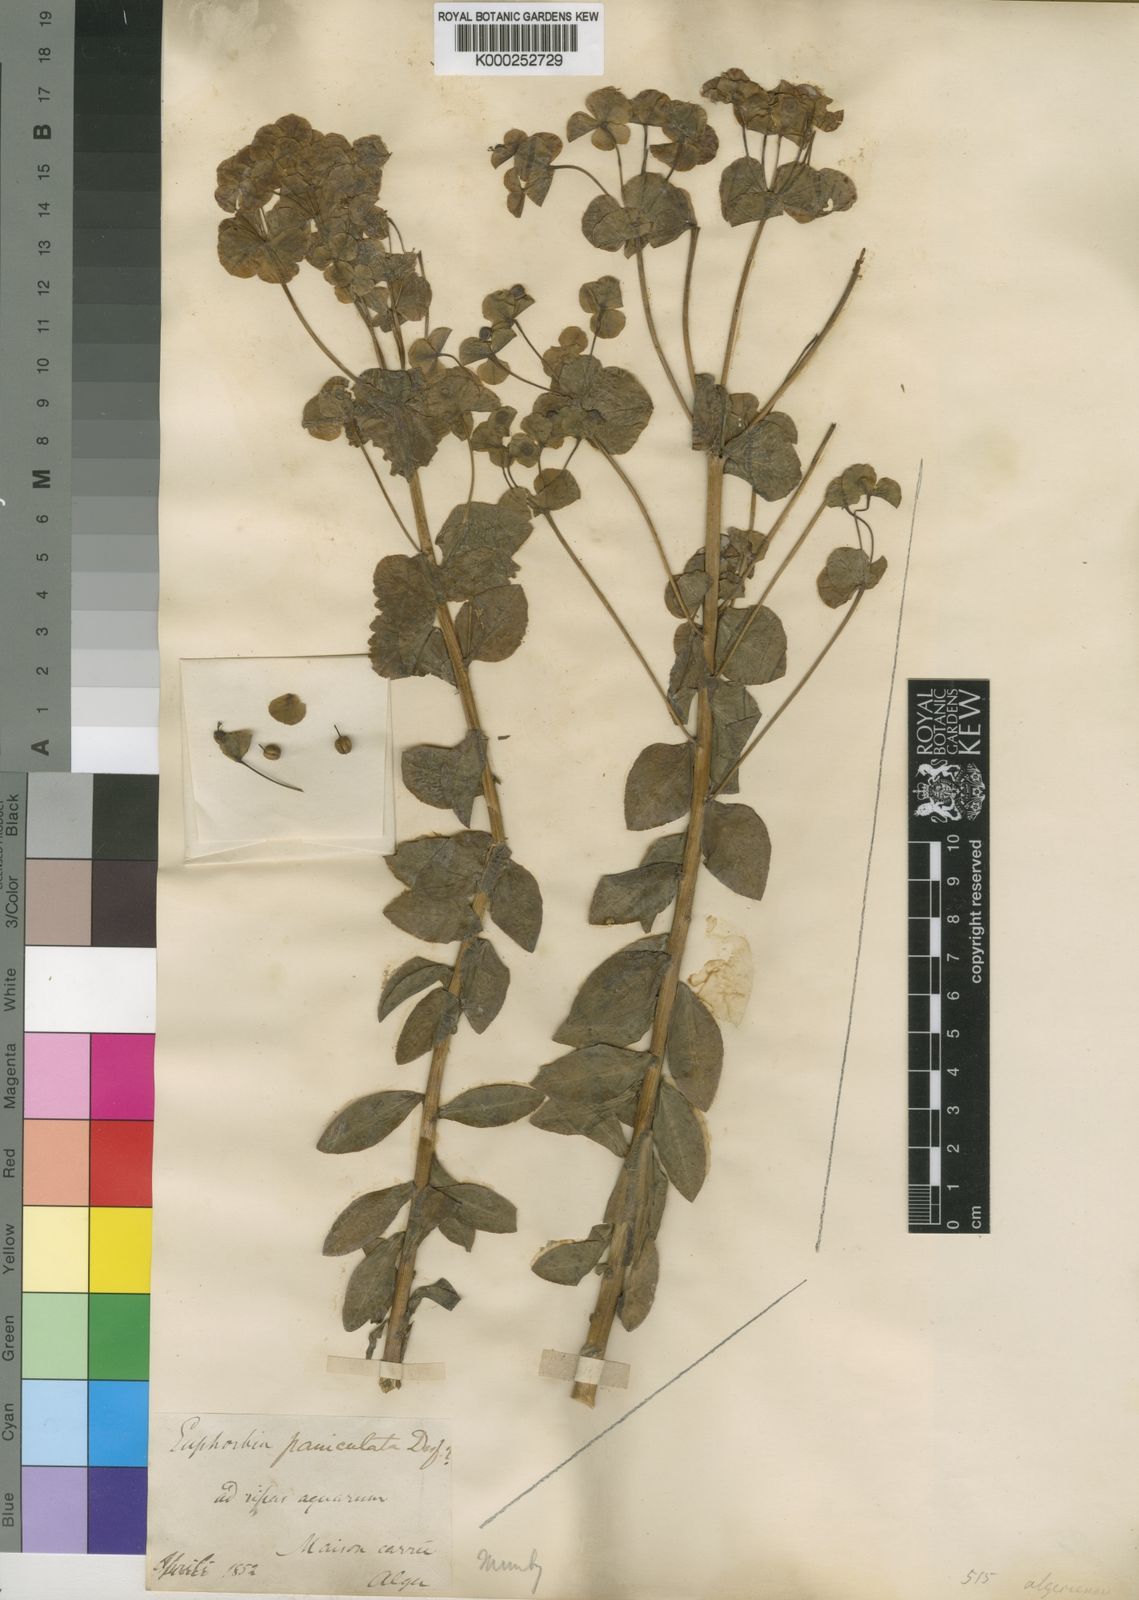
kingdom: Plantae
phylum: Tracheophyta
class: Magnoliopsida
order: Malpighiales
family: Euphorbiaceae
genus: Euphorbia
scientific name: Euphorbia paniculata
